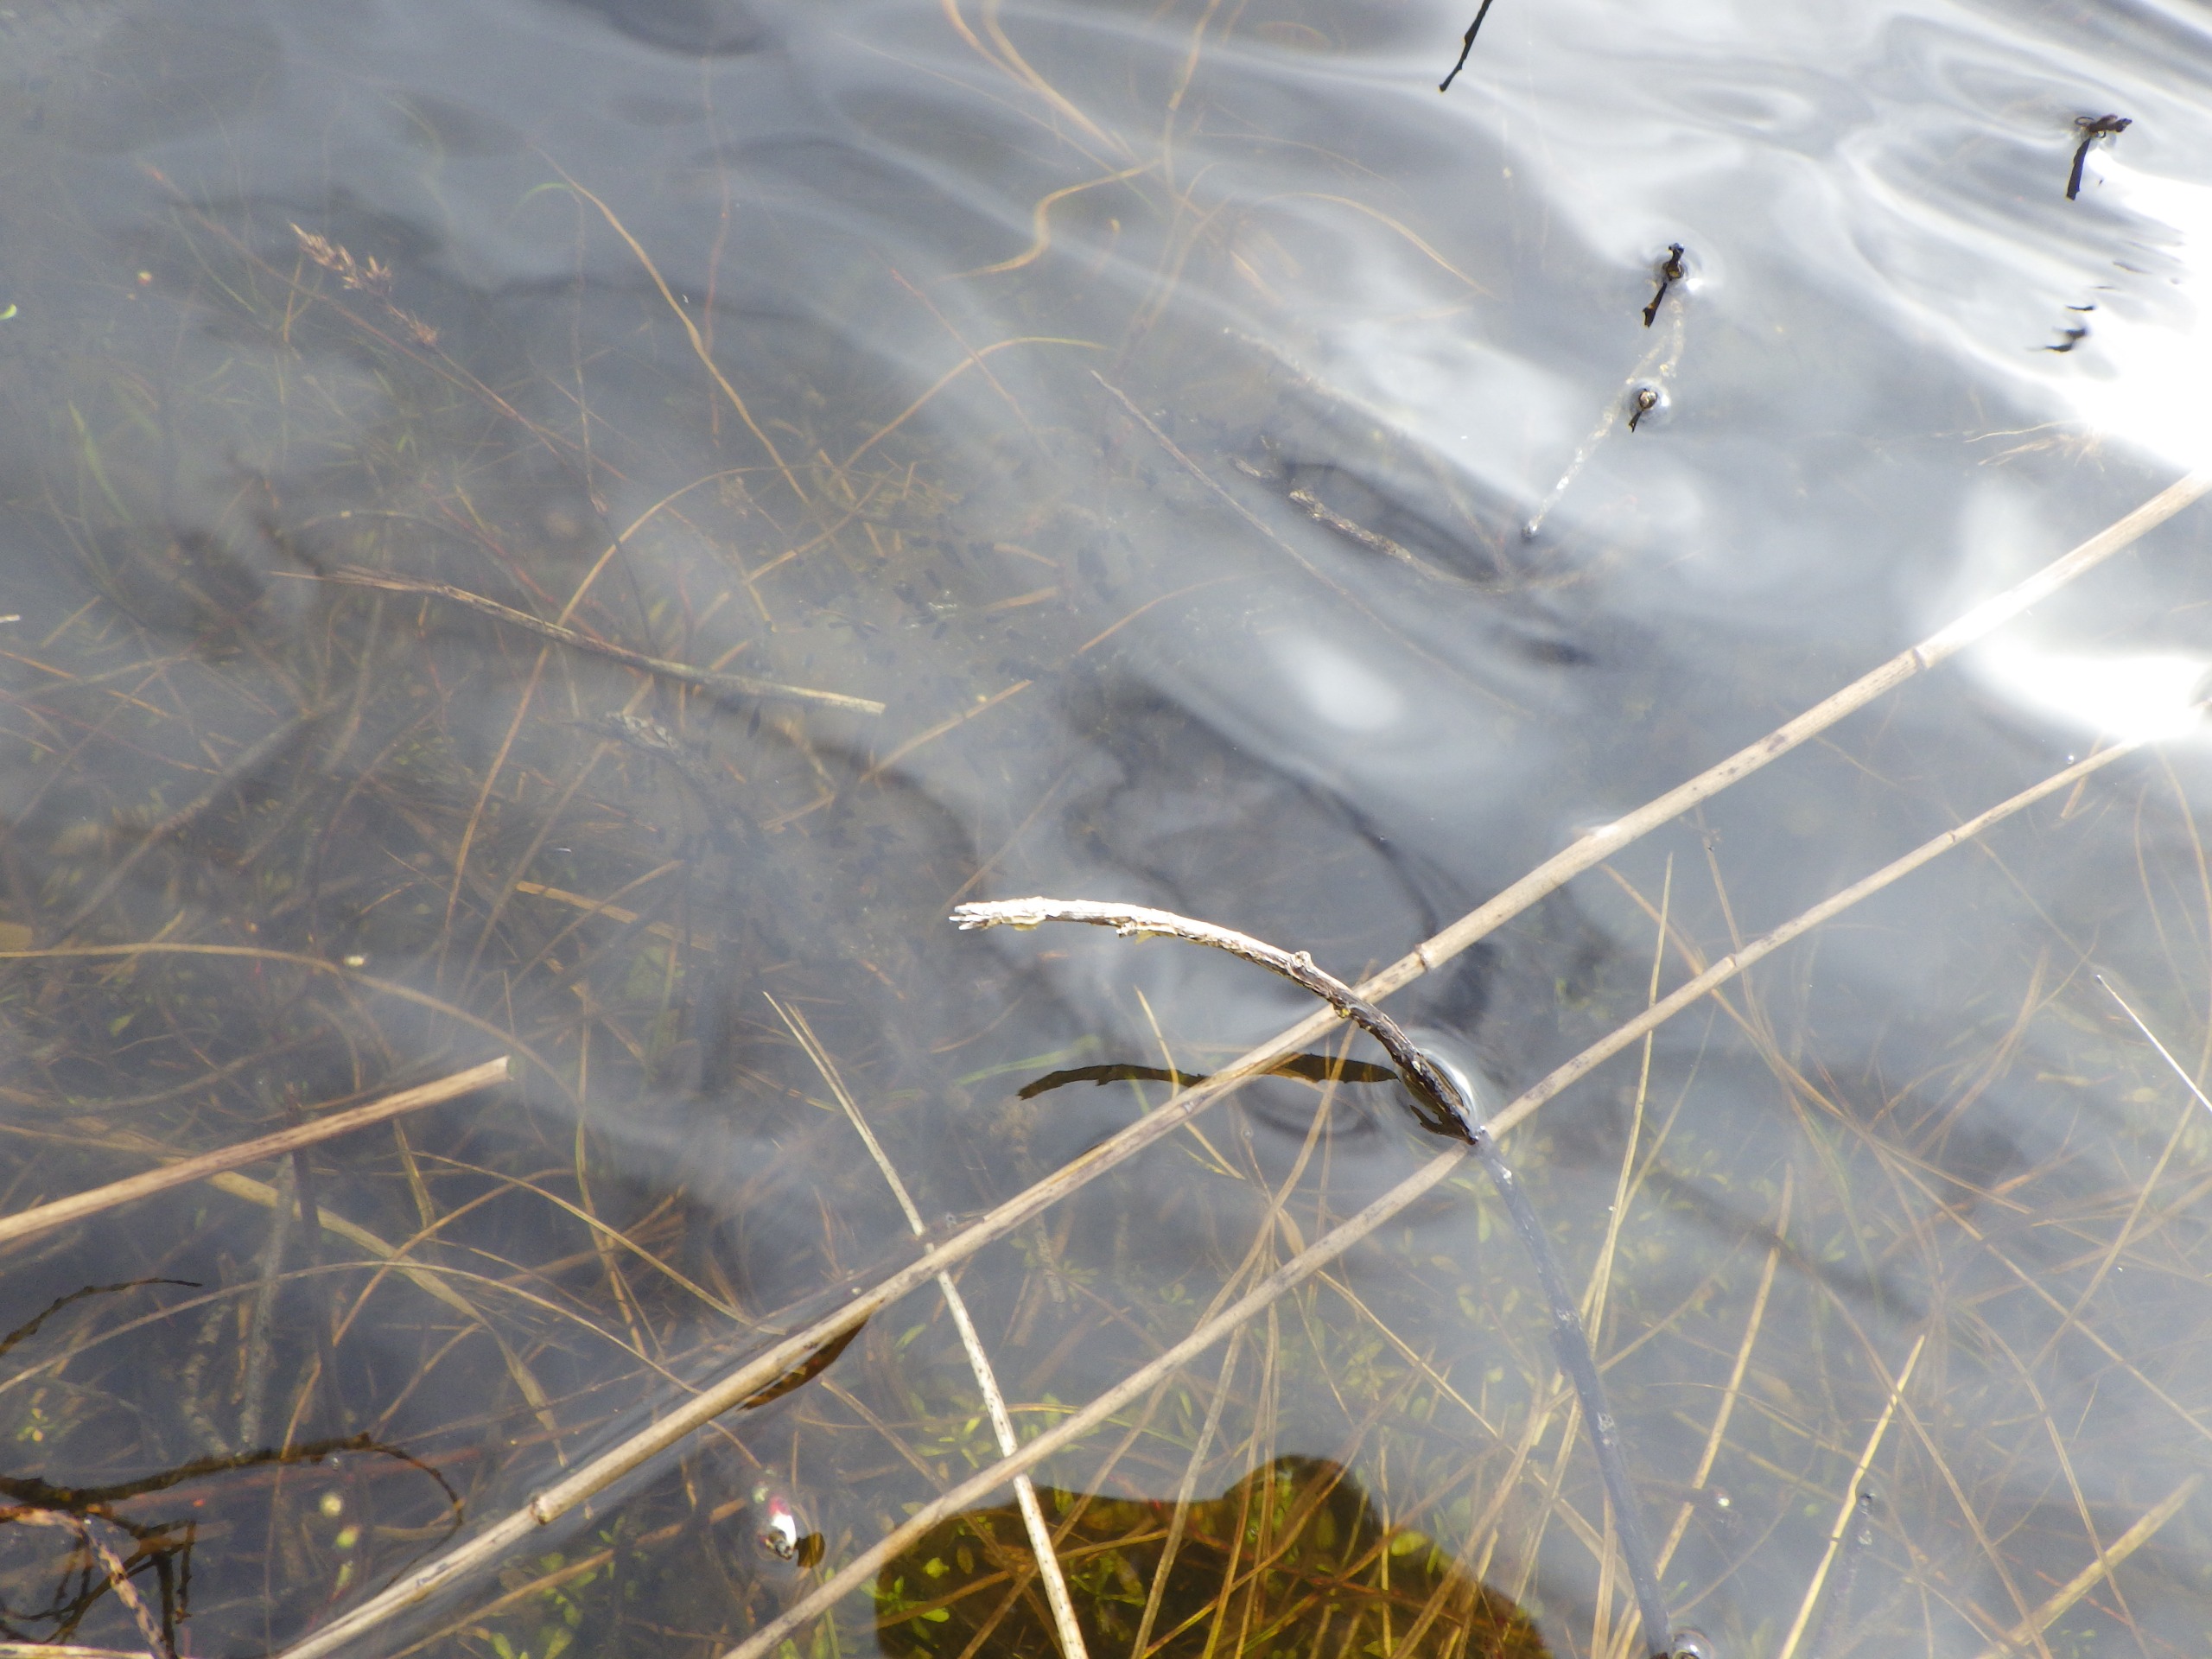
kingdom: Animalia
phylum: Chordata
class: Amphibia
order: Anura
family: Bufonidae
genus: Bufo
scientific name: Bufo bufo
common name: Skrubtudse
